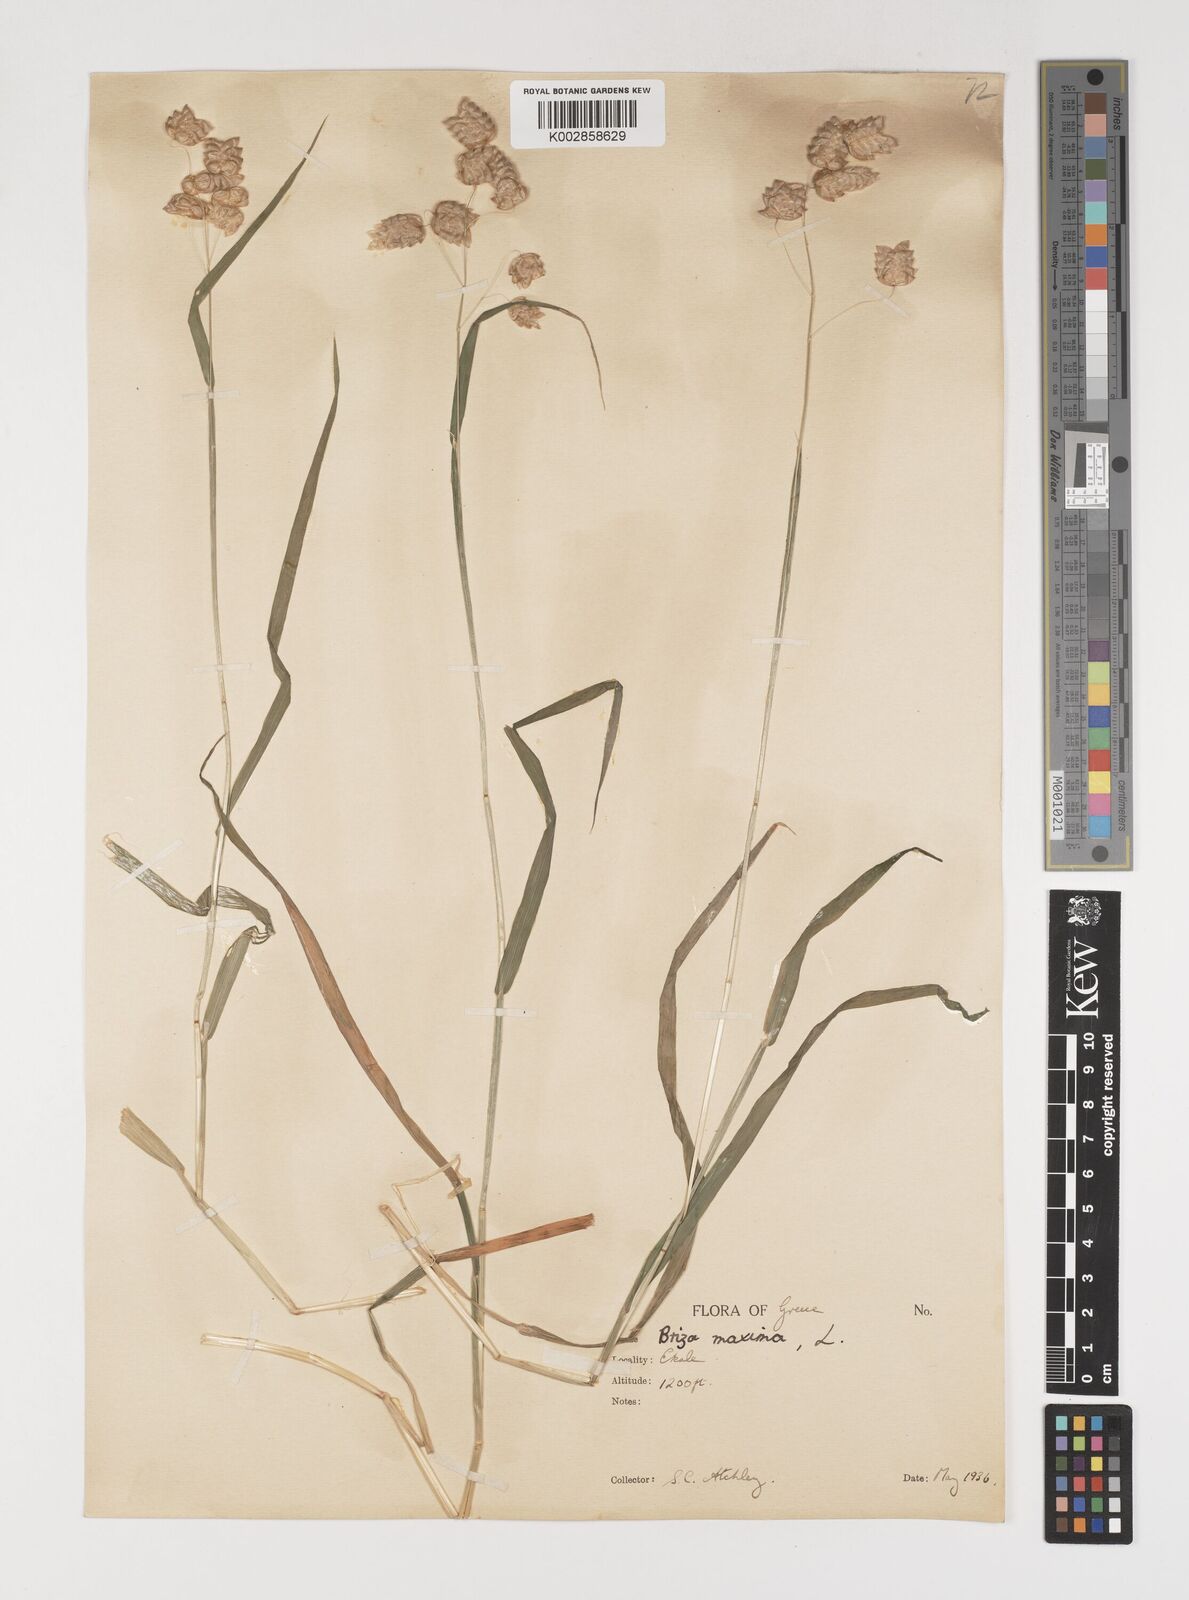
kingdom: Plantae
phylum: Tracheophyta
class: Liliopsida
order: Poales
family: Poaceae
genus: Briza
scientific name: Briza maxima
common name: Big quakinggrass
